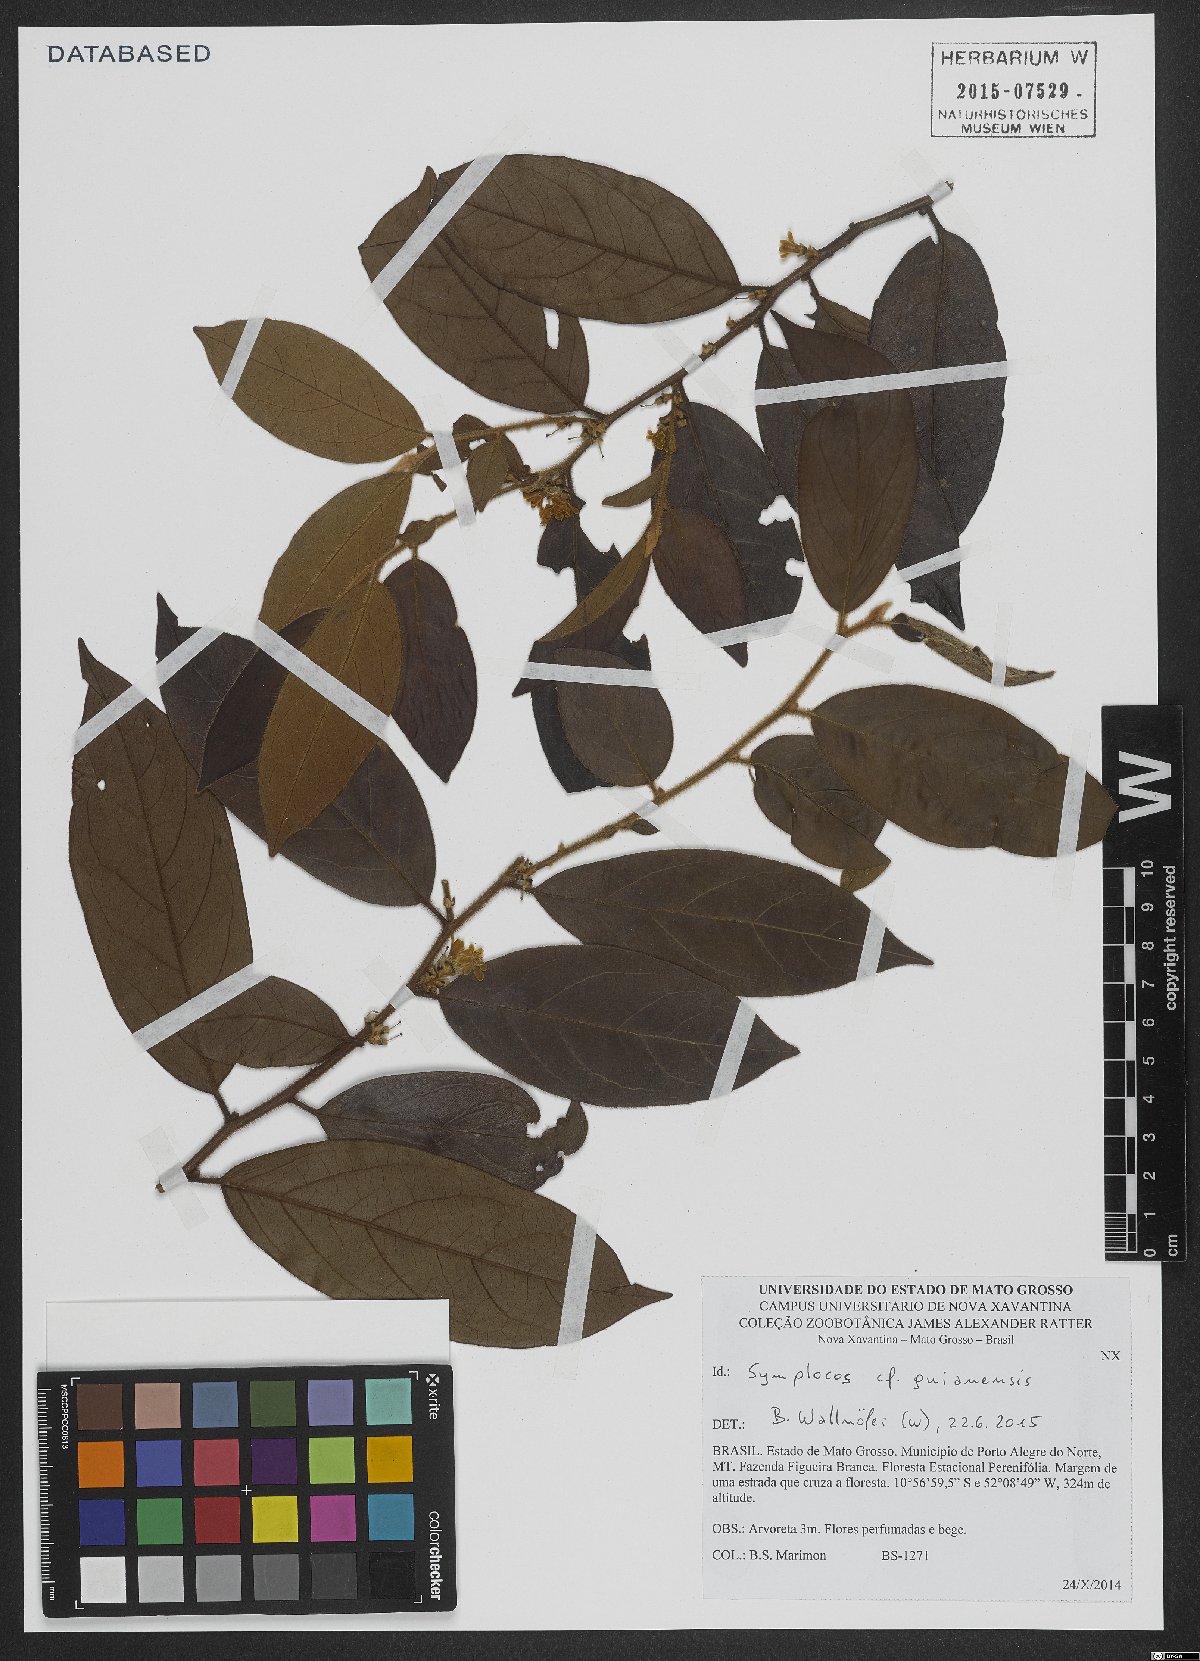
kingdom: Plantae
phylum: Tracheophyta
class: Magnoliopsida
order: Ericales
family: Symplocaceae
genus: Symplocos
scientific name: Symplocos guianensis
